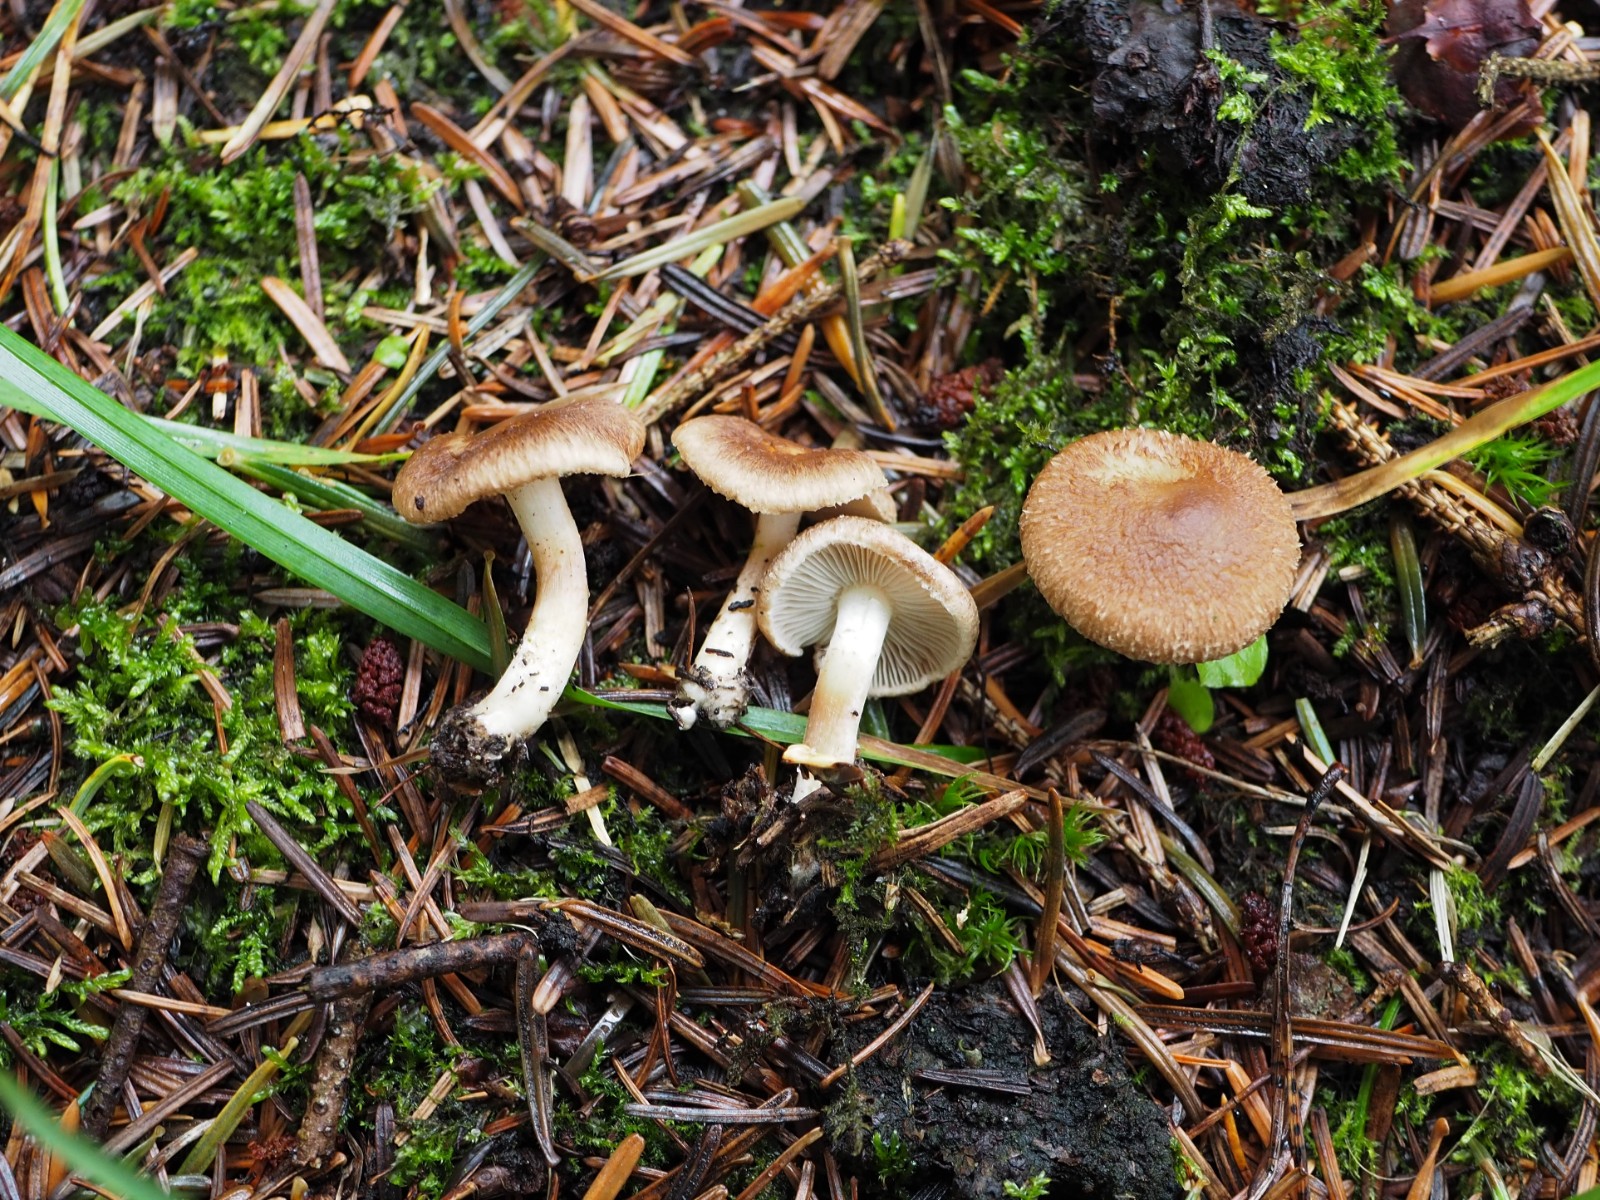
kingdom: Fungi
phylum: Basidiomycota
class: Agaricomycetes
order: Agaricales
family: Inocybaceae
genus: Inocybe
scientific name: Inocybe
